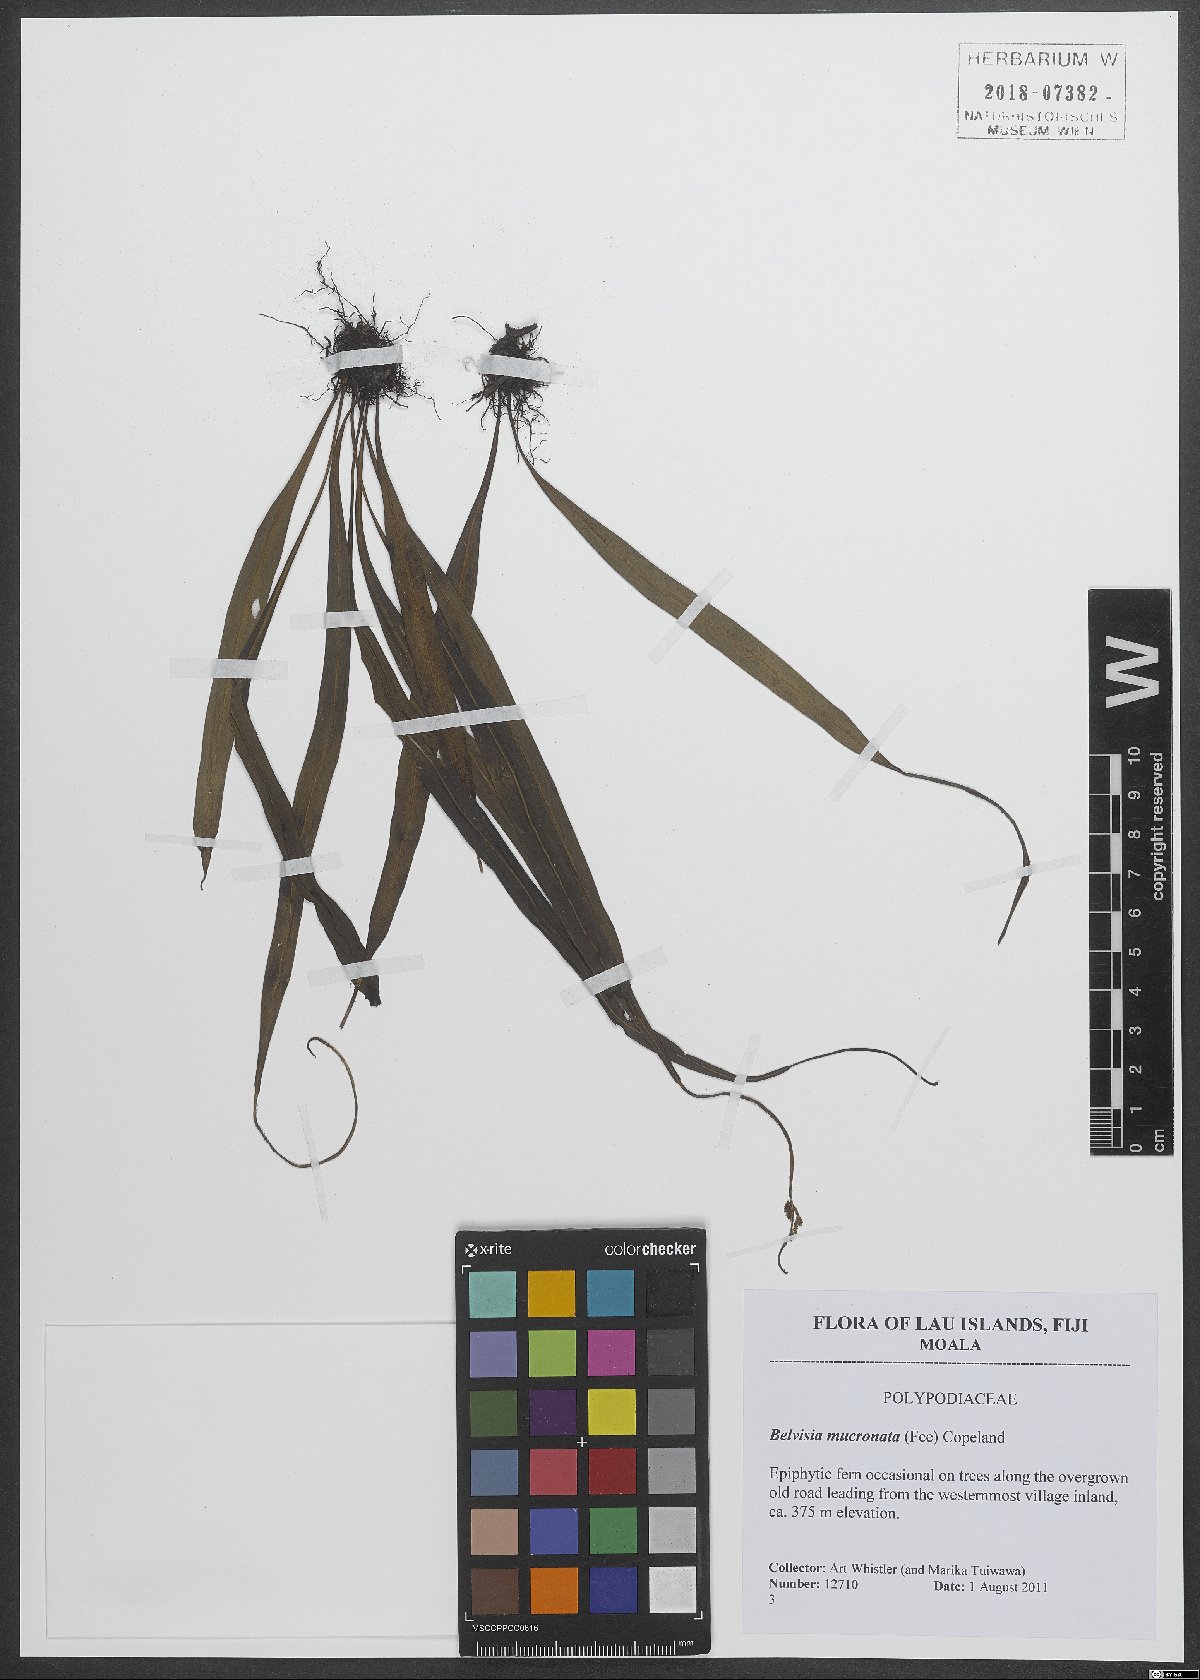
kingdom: Plantae
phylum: Tracheophyta
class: Polypodiopsida
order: Polypodiales
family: Polypodiaceae
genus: Lepisorus
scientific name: Lepisorus mucronatus
